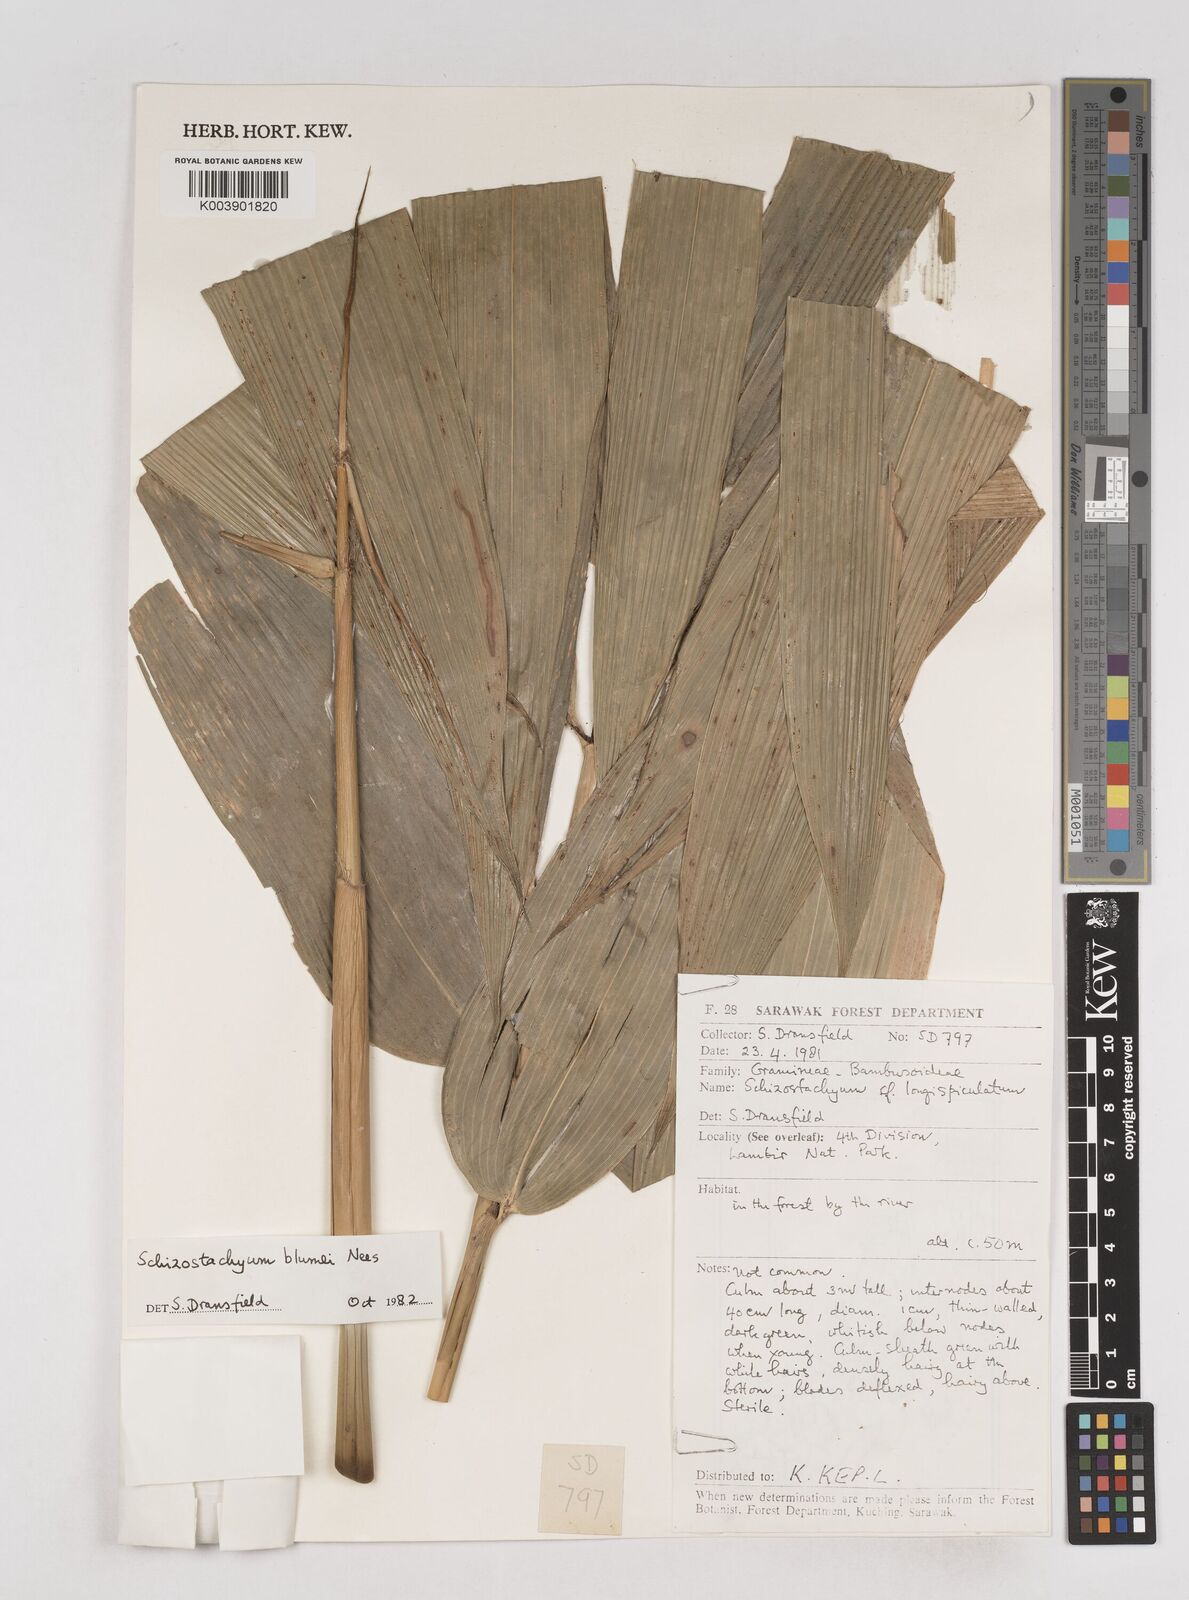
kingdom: Plantae
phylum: Tracheophyta
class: Liliopsida
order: Poales
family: Poaceae
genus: Schizostachyum
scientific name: Schizostachyum blumei
